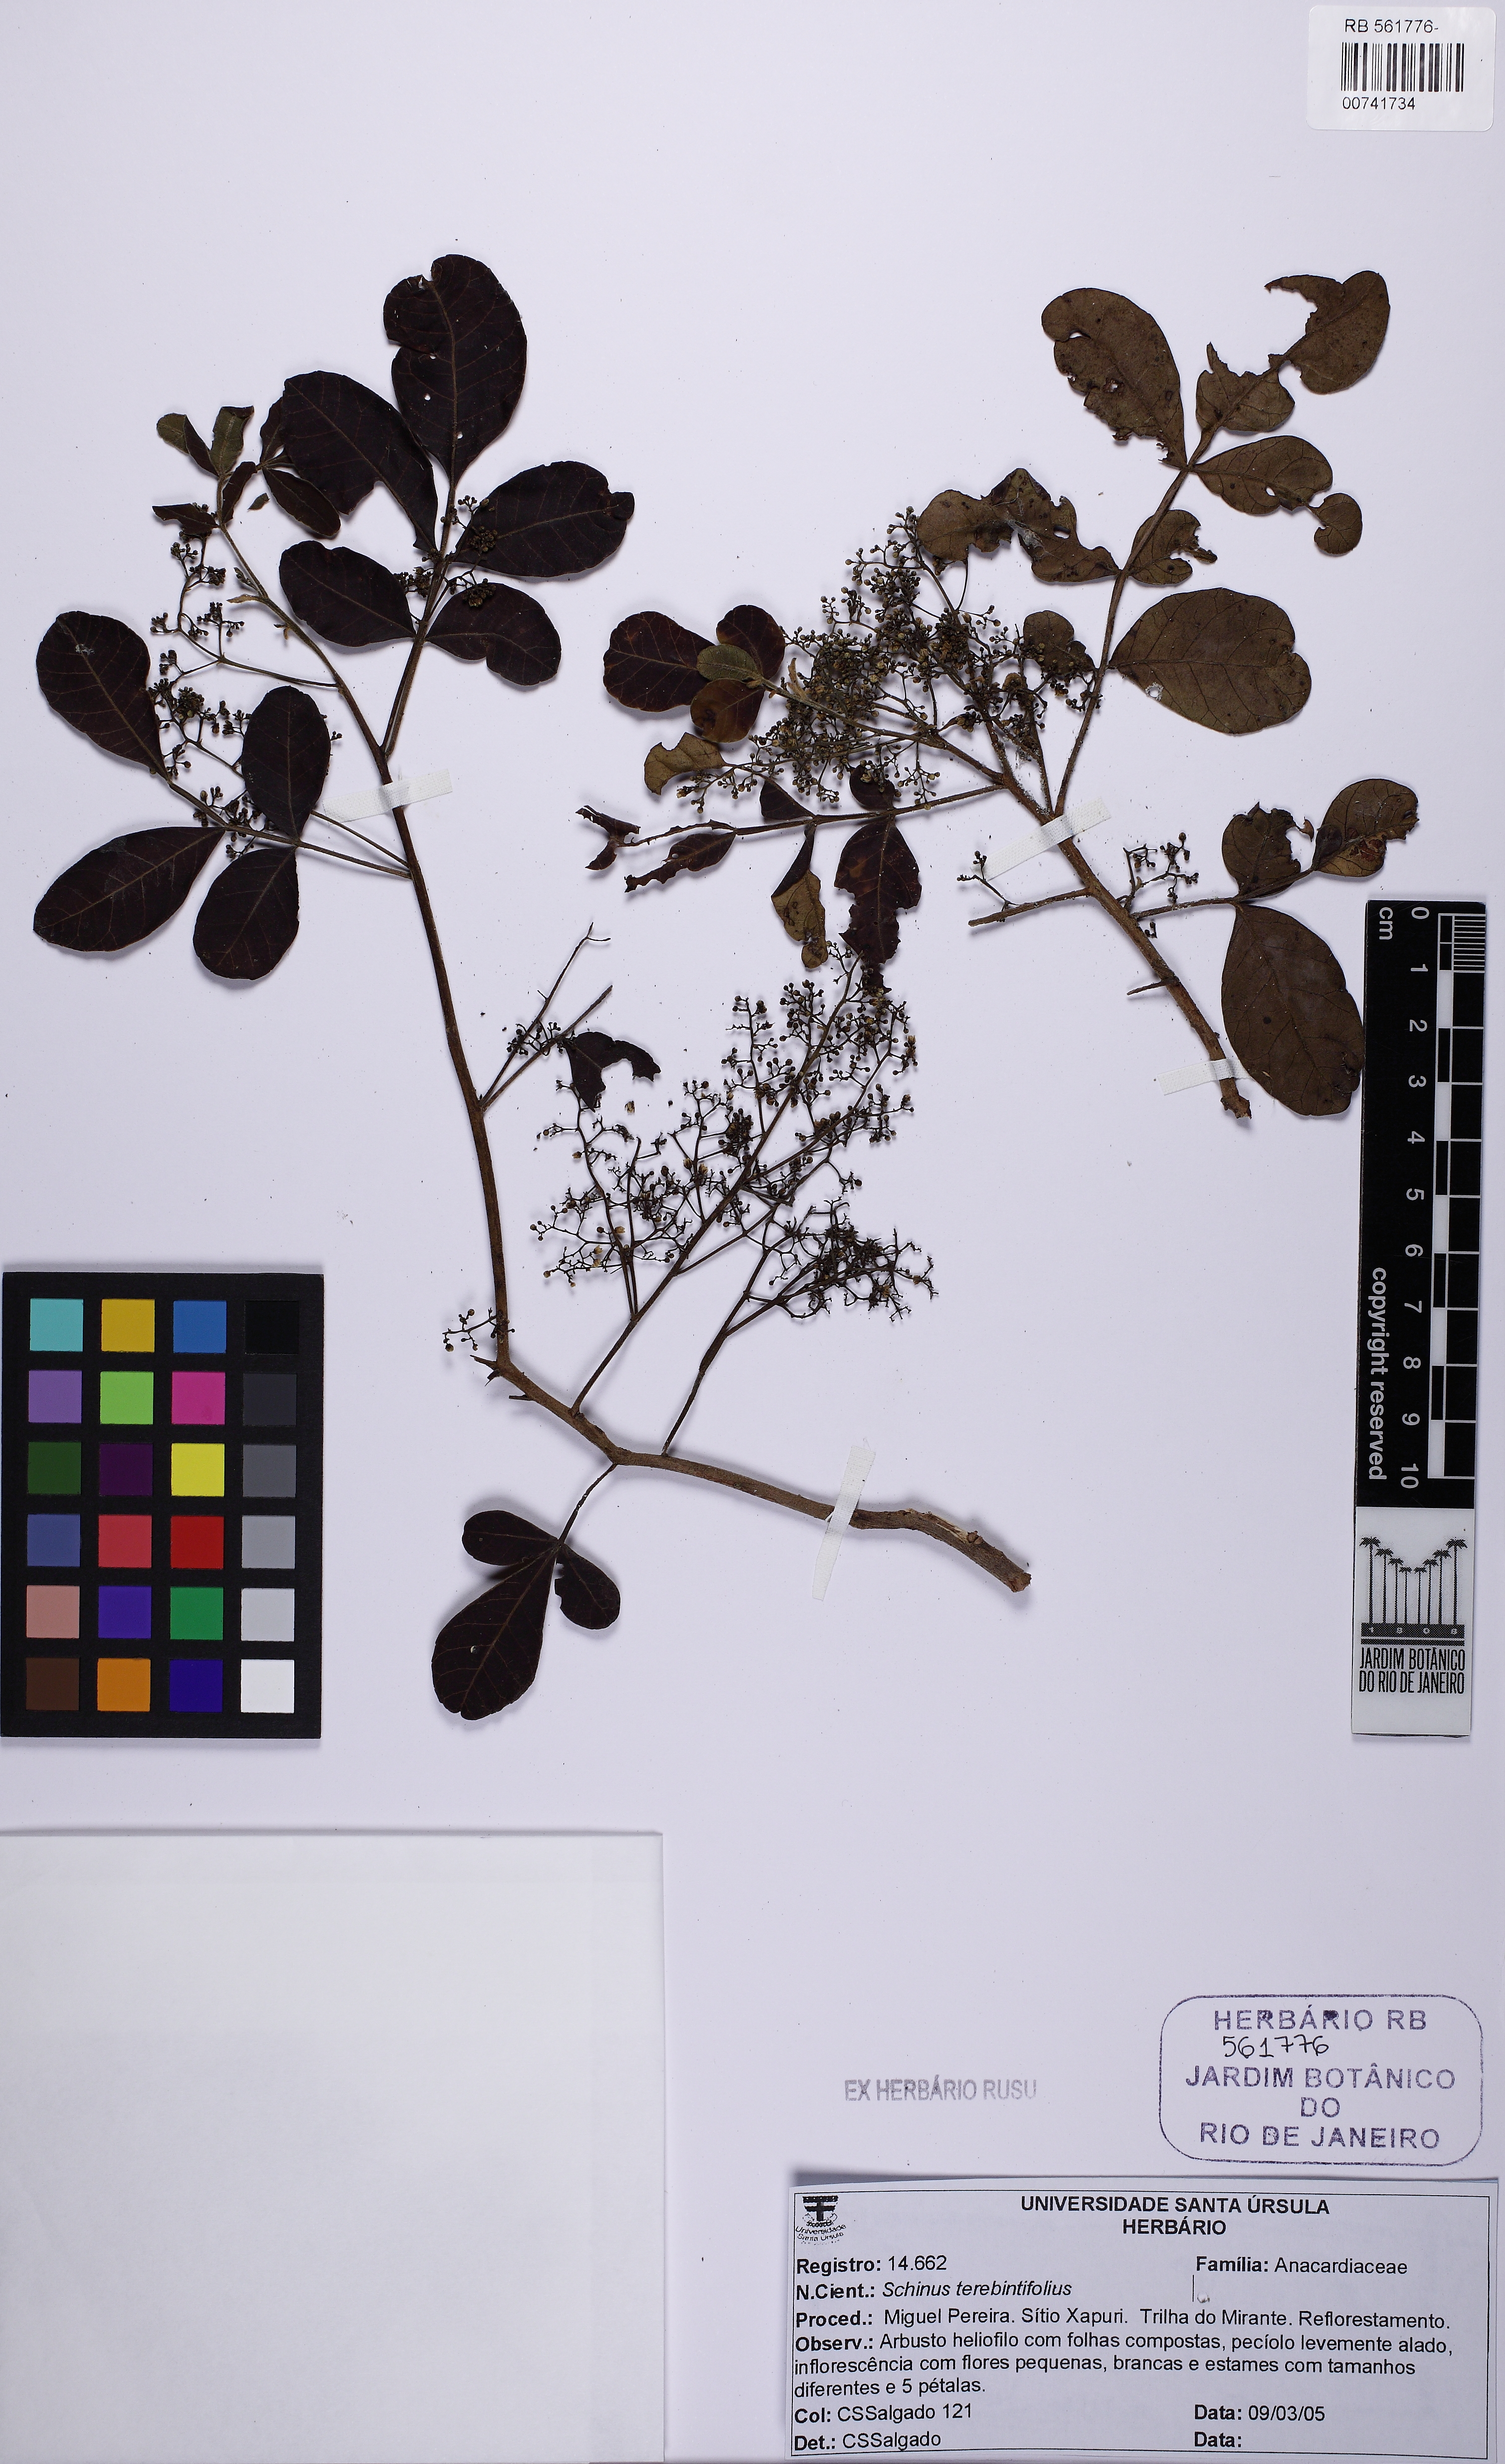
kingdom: Plantae
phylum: Tracheophyta
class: Magnoliopsida
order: Sapindales
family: Anacardiaceae
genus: Schinus
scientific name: Schinus terebinthifolia
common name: Brazilian peppertree
